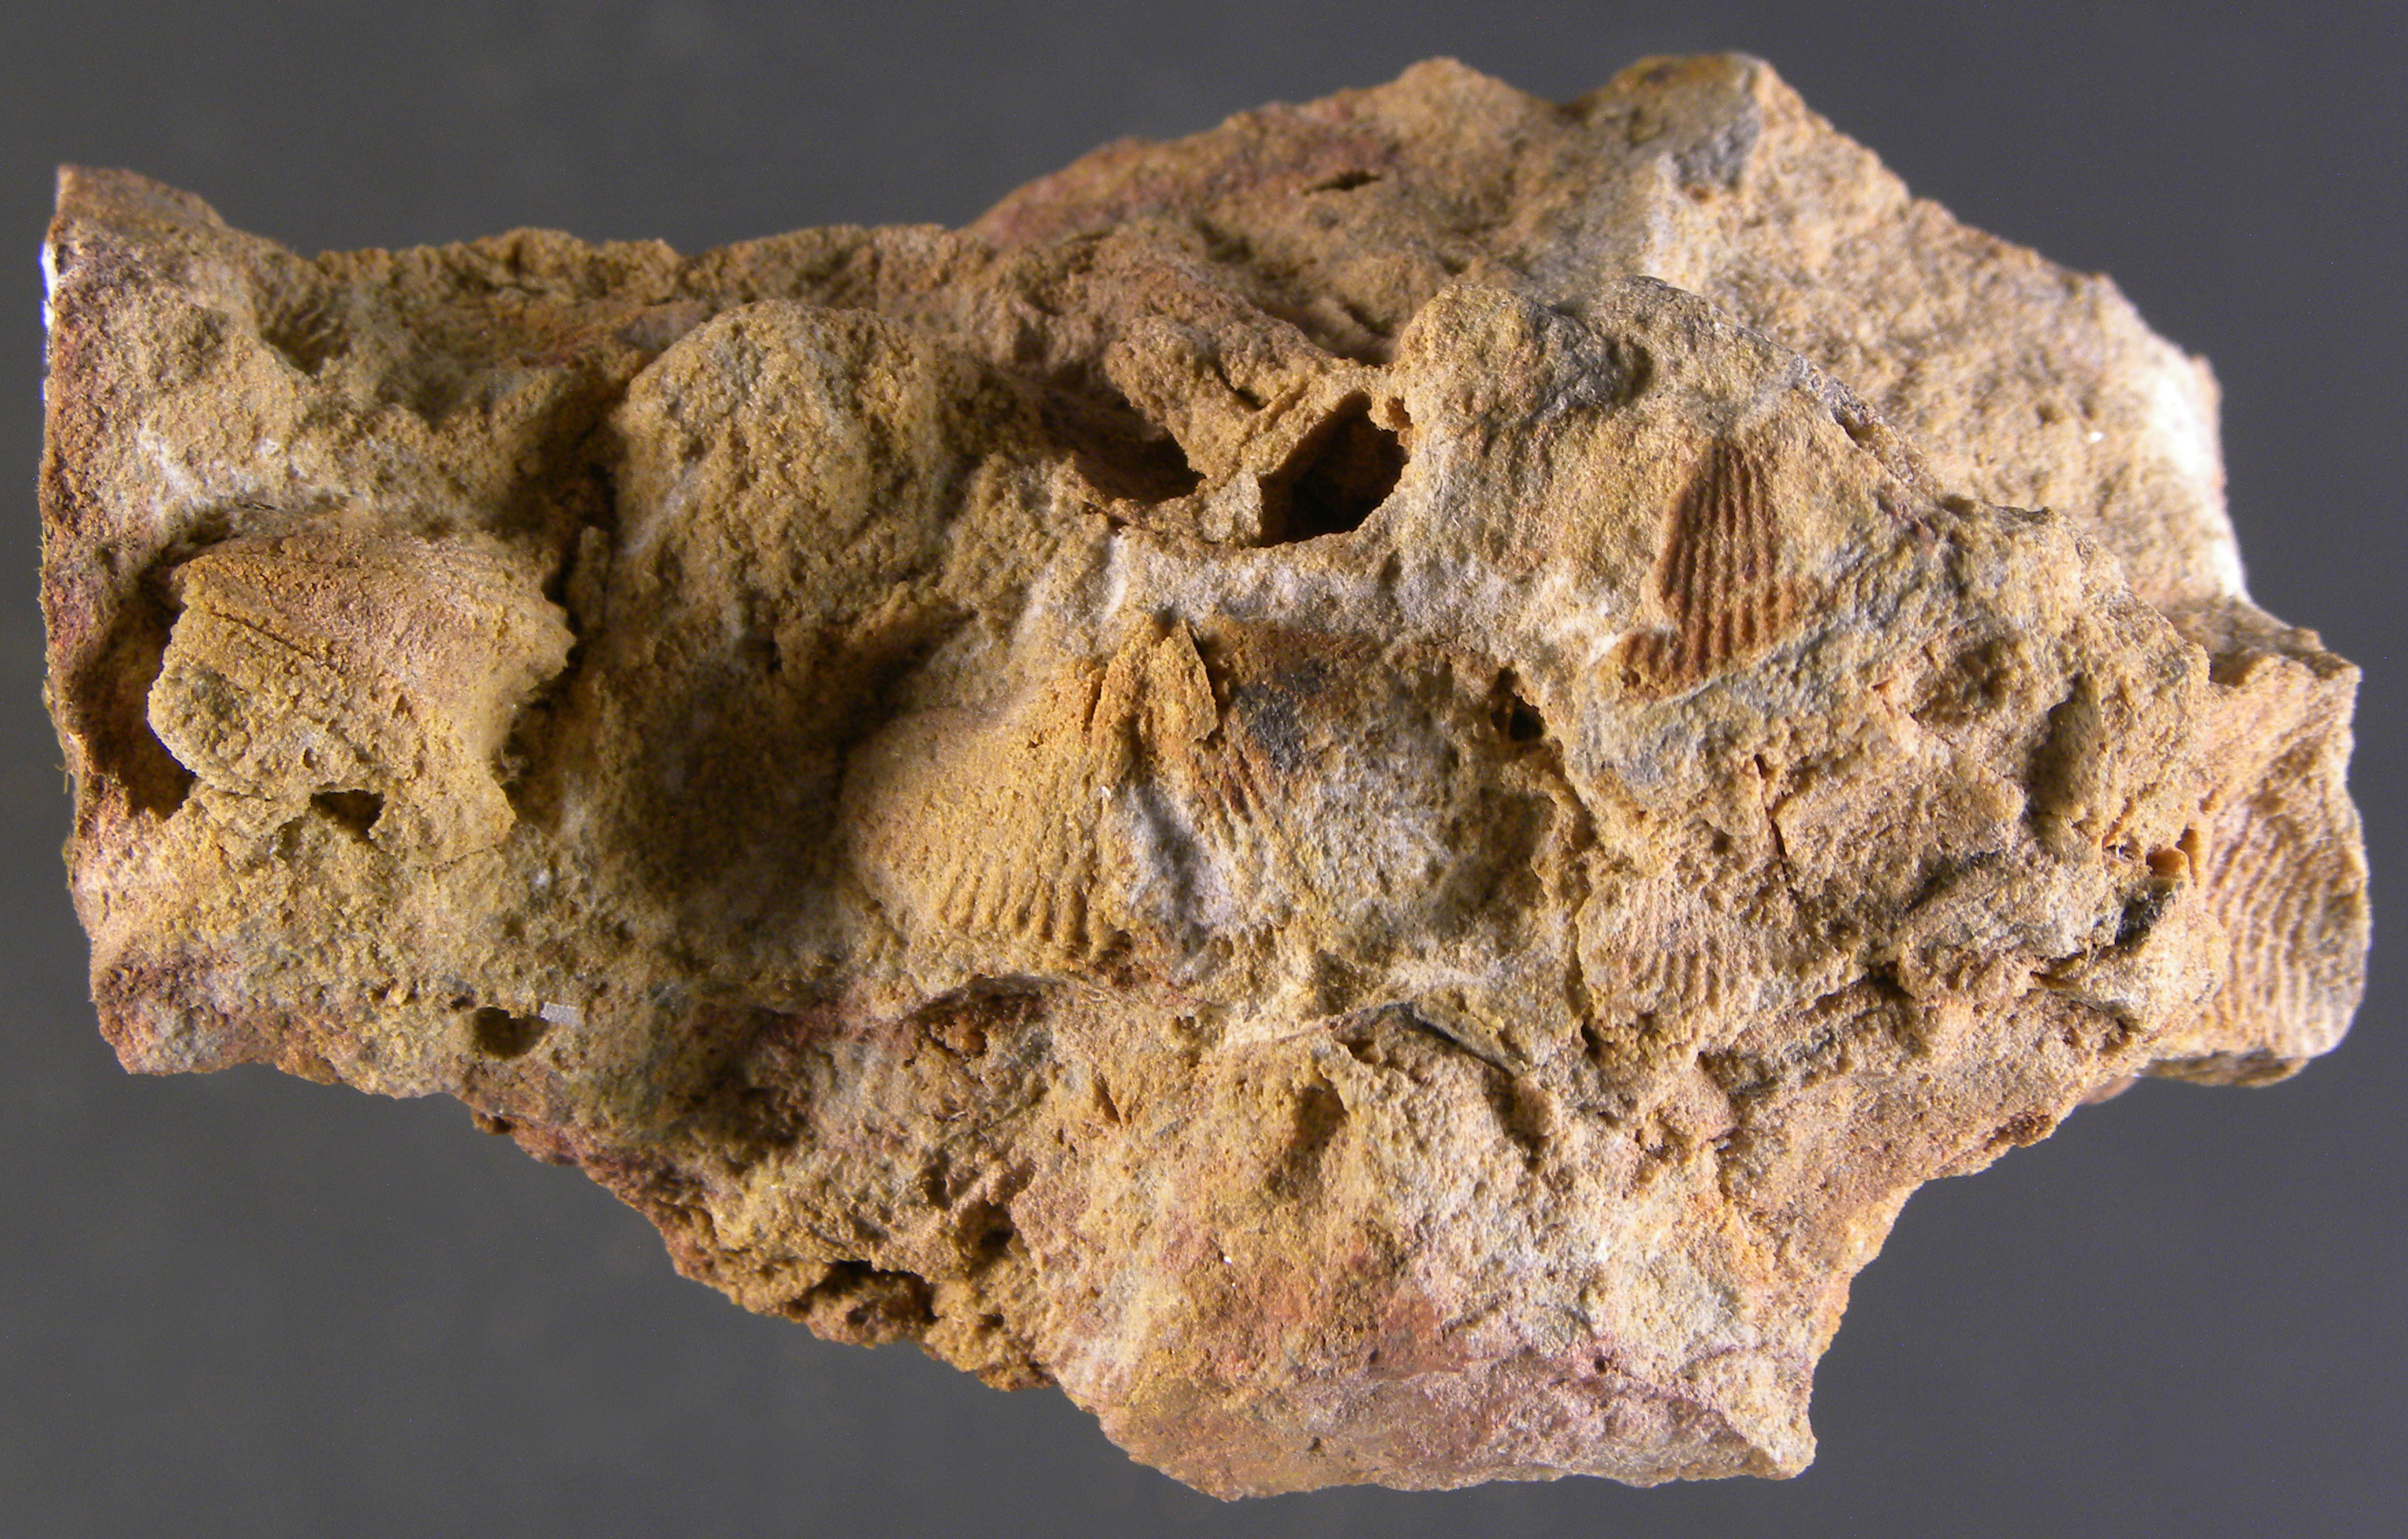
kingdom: Animalia
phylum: Brachiopoda
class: Rhynchonellata
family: Spinocyrtiidae
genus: Subcuspidella
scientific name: Subcuspidella
